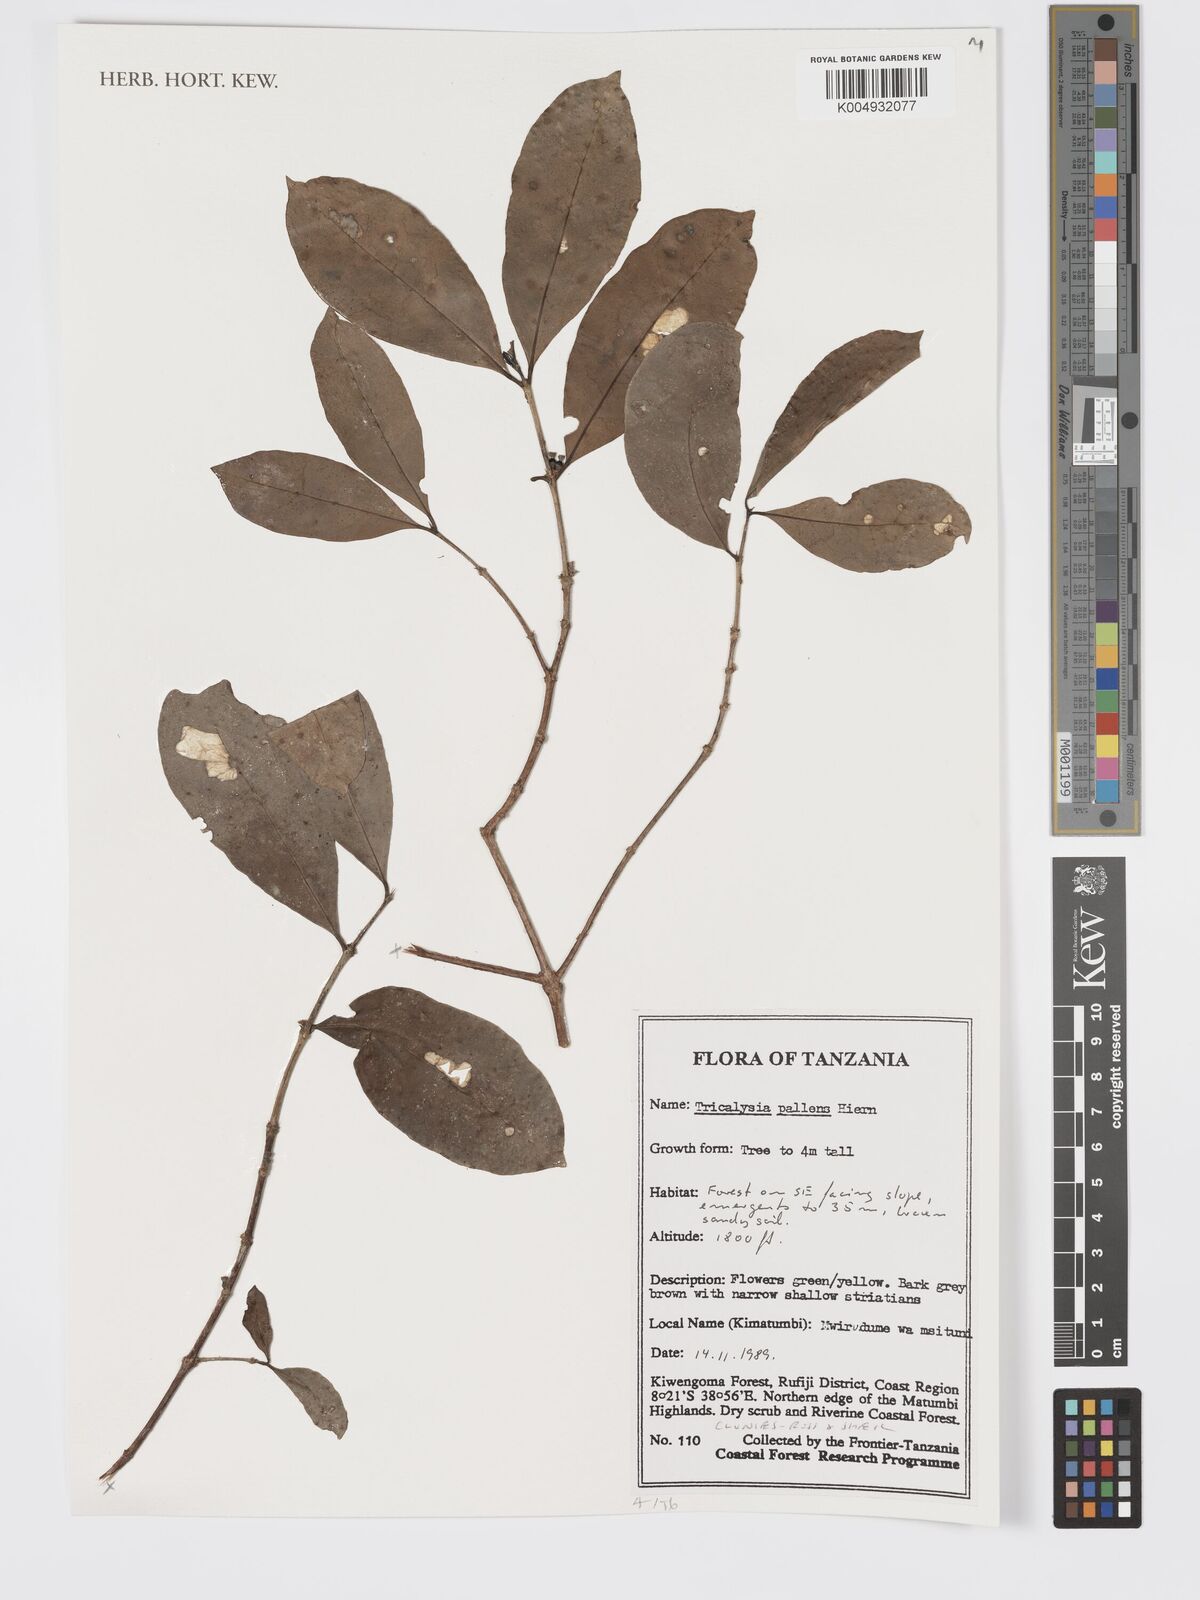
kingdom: Plantae
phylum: Tracheophyta
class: Magnoliopsida
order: Gentianales
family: Rubiaceae
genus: Tricalysia
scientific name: Tricalysia pallens
